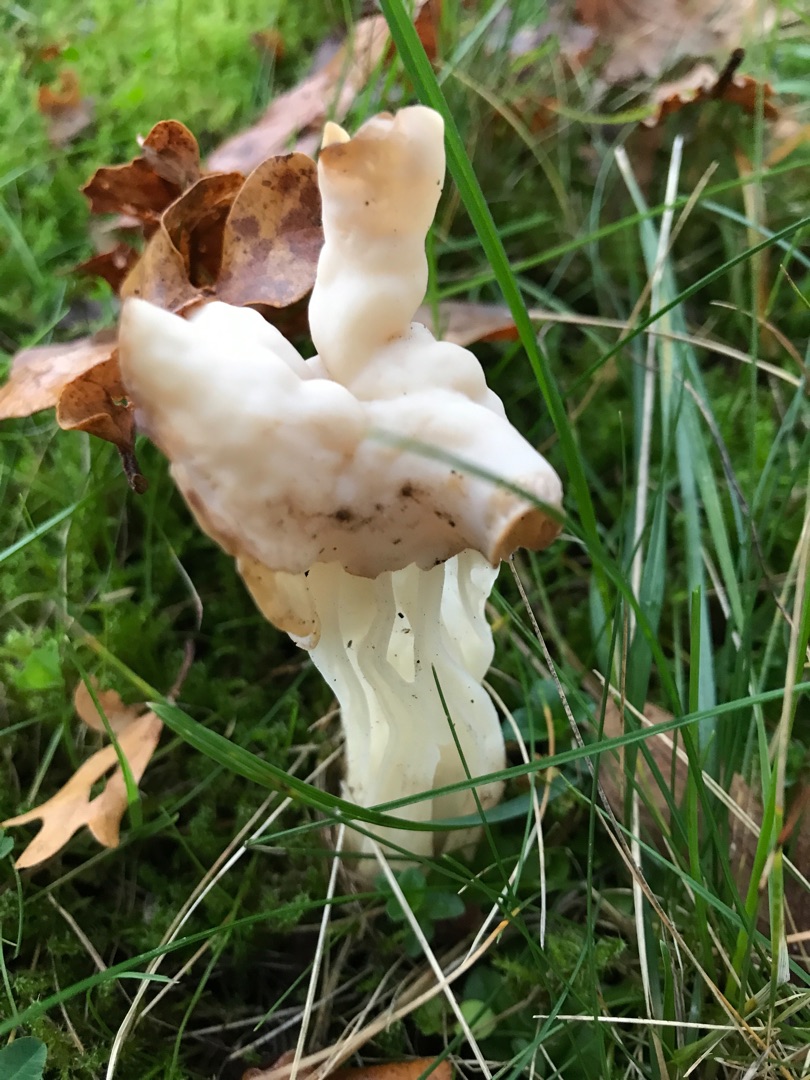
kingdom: Fungi
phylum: Ascomycota
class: Pezizomycetes
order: Pezizales
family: Helvellaceae
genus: Helvella
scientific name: Helvella crispa
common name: Kruset foldhat
